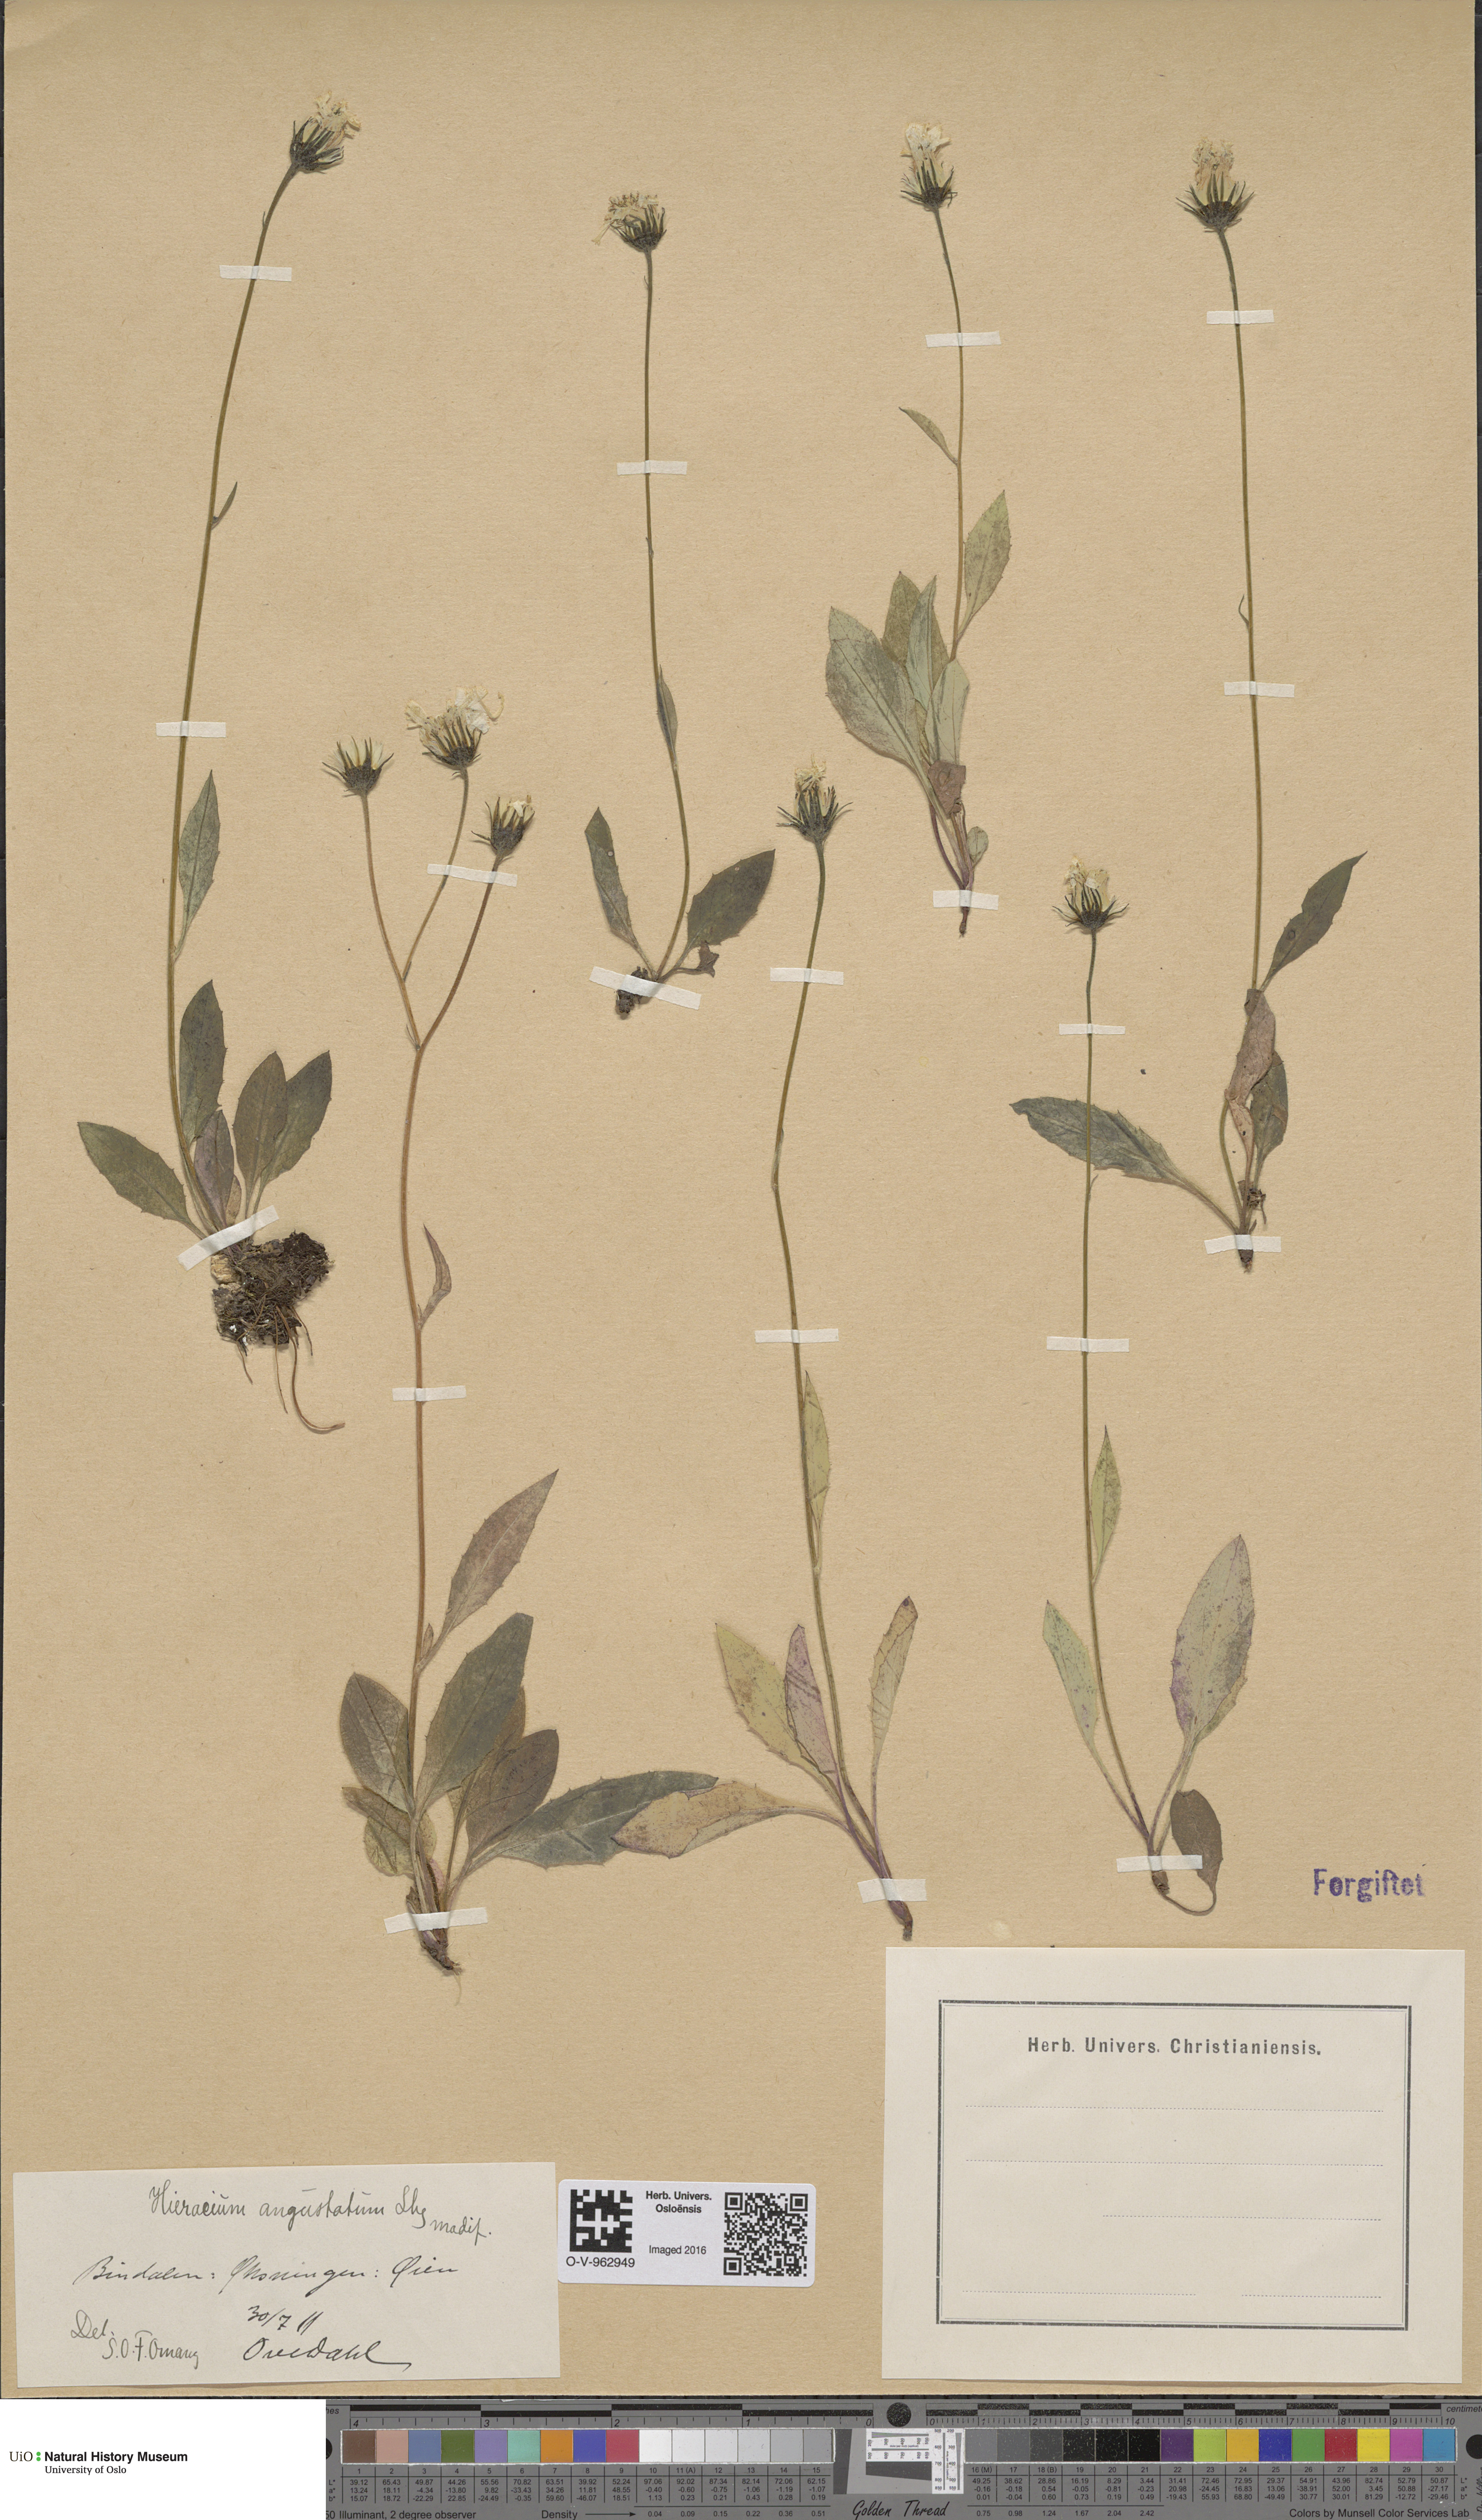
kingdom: Plantae
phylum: Tracheophyta
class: Magnoliopsida
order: Asterales
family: Asteraceae
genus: Hieracium
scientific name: Hieracium angustatum
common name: Lesser-leaved hawkweed
